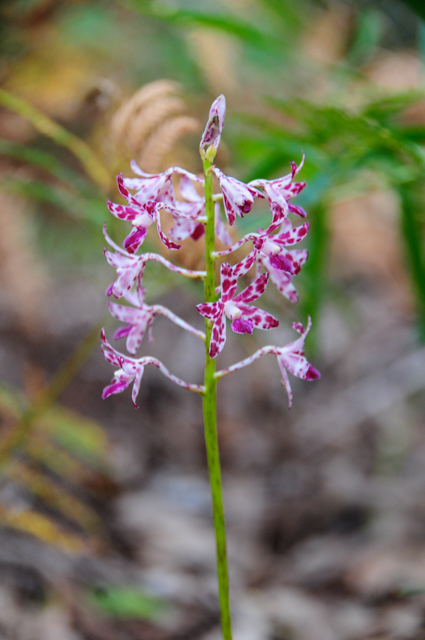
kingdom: Plantae
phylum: Tracheophyta
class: Liliopsida
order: Asparagales
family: Orchidaceae
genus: Dipodium
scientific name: Dipodium squamatum
